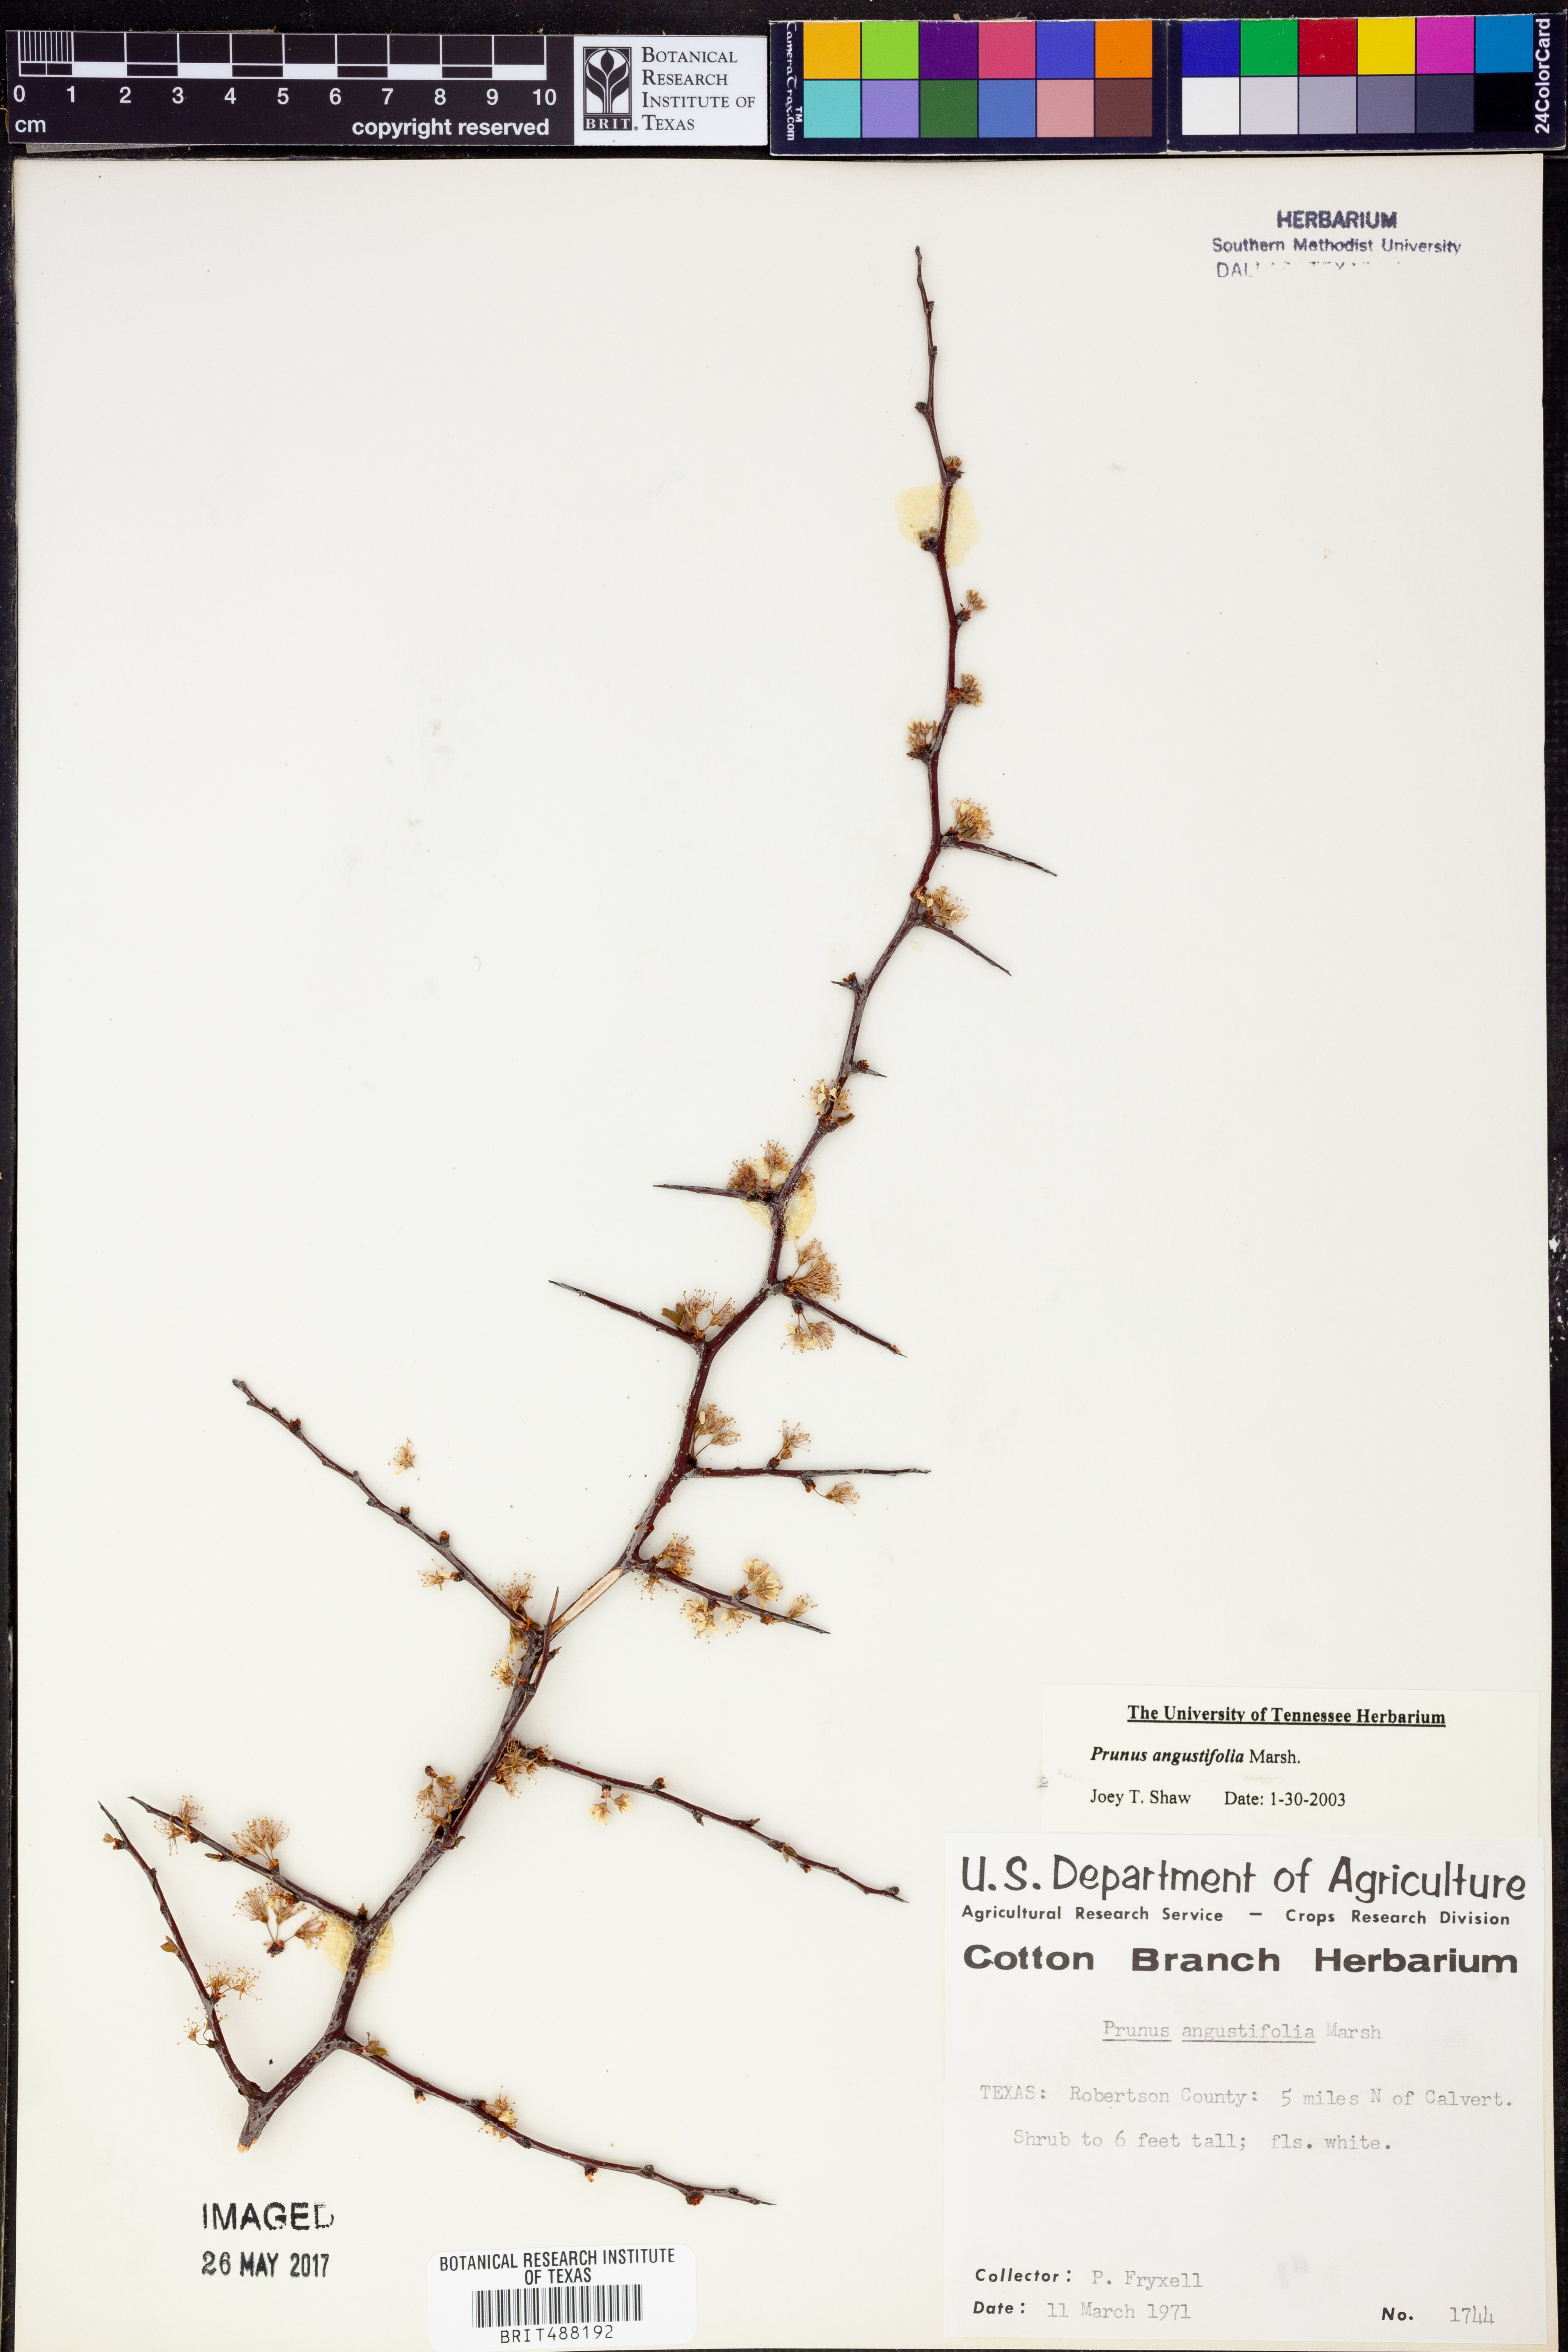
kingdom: Plantae
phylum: Tracheophyta
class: Magnoliopsida
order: Rosales
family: Rosaceae
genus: Prunus
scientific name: Prunus angustifolia
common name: Cherokee plum
